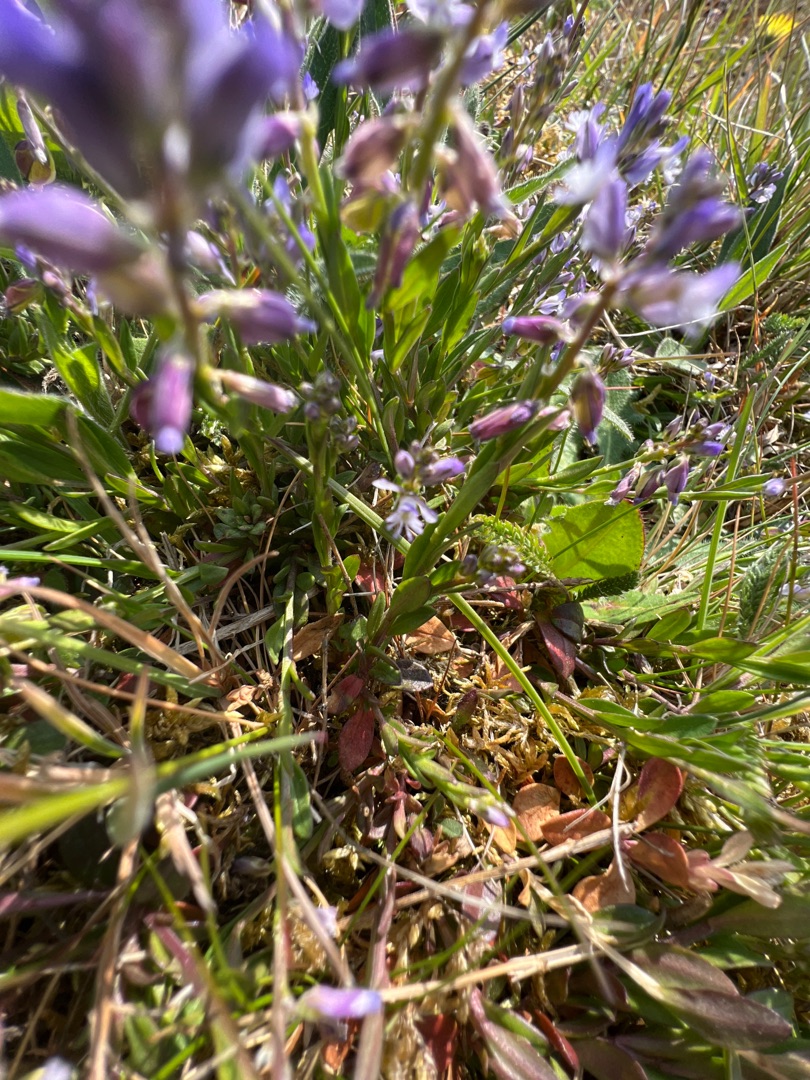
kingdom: Plantae
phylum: Tracheophyta
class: Magnoliopsida
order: Fabales
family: Polygalaceae
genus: Polygala
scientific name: Polygala vulgaris
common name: Almindelig mælkeurt
